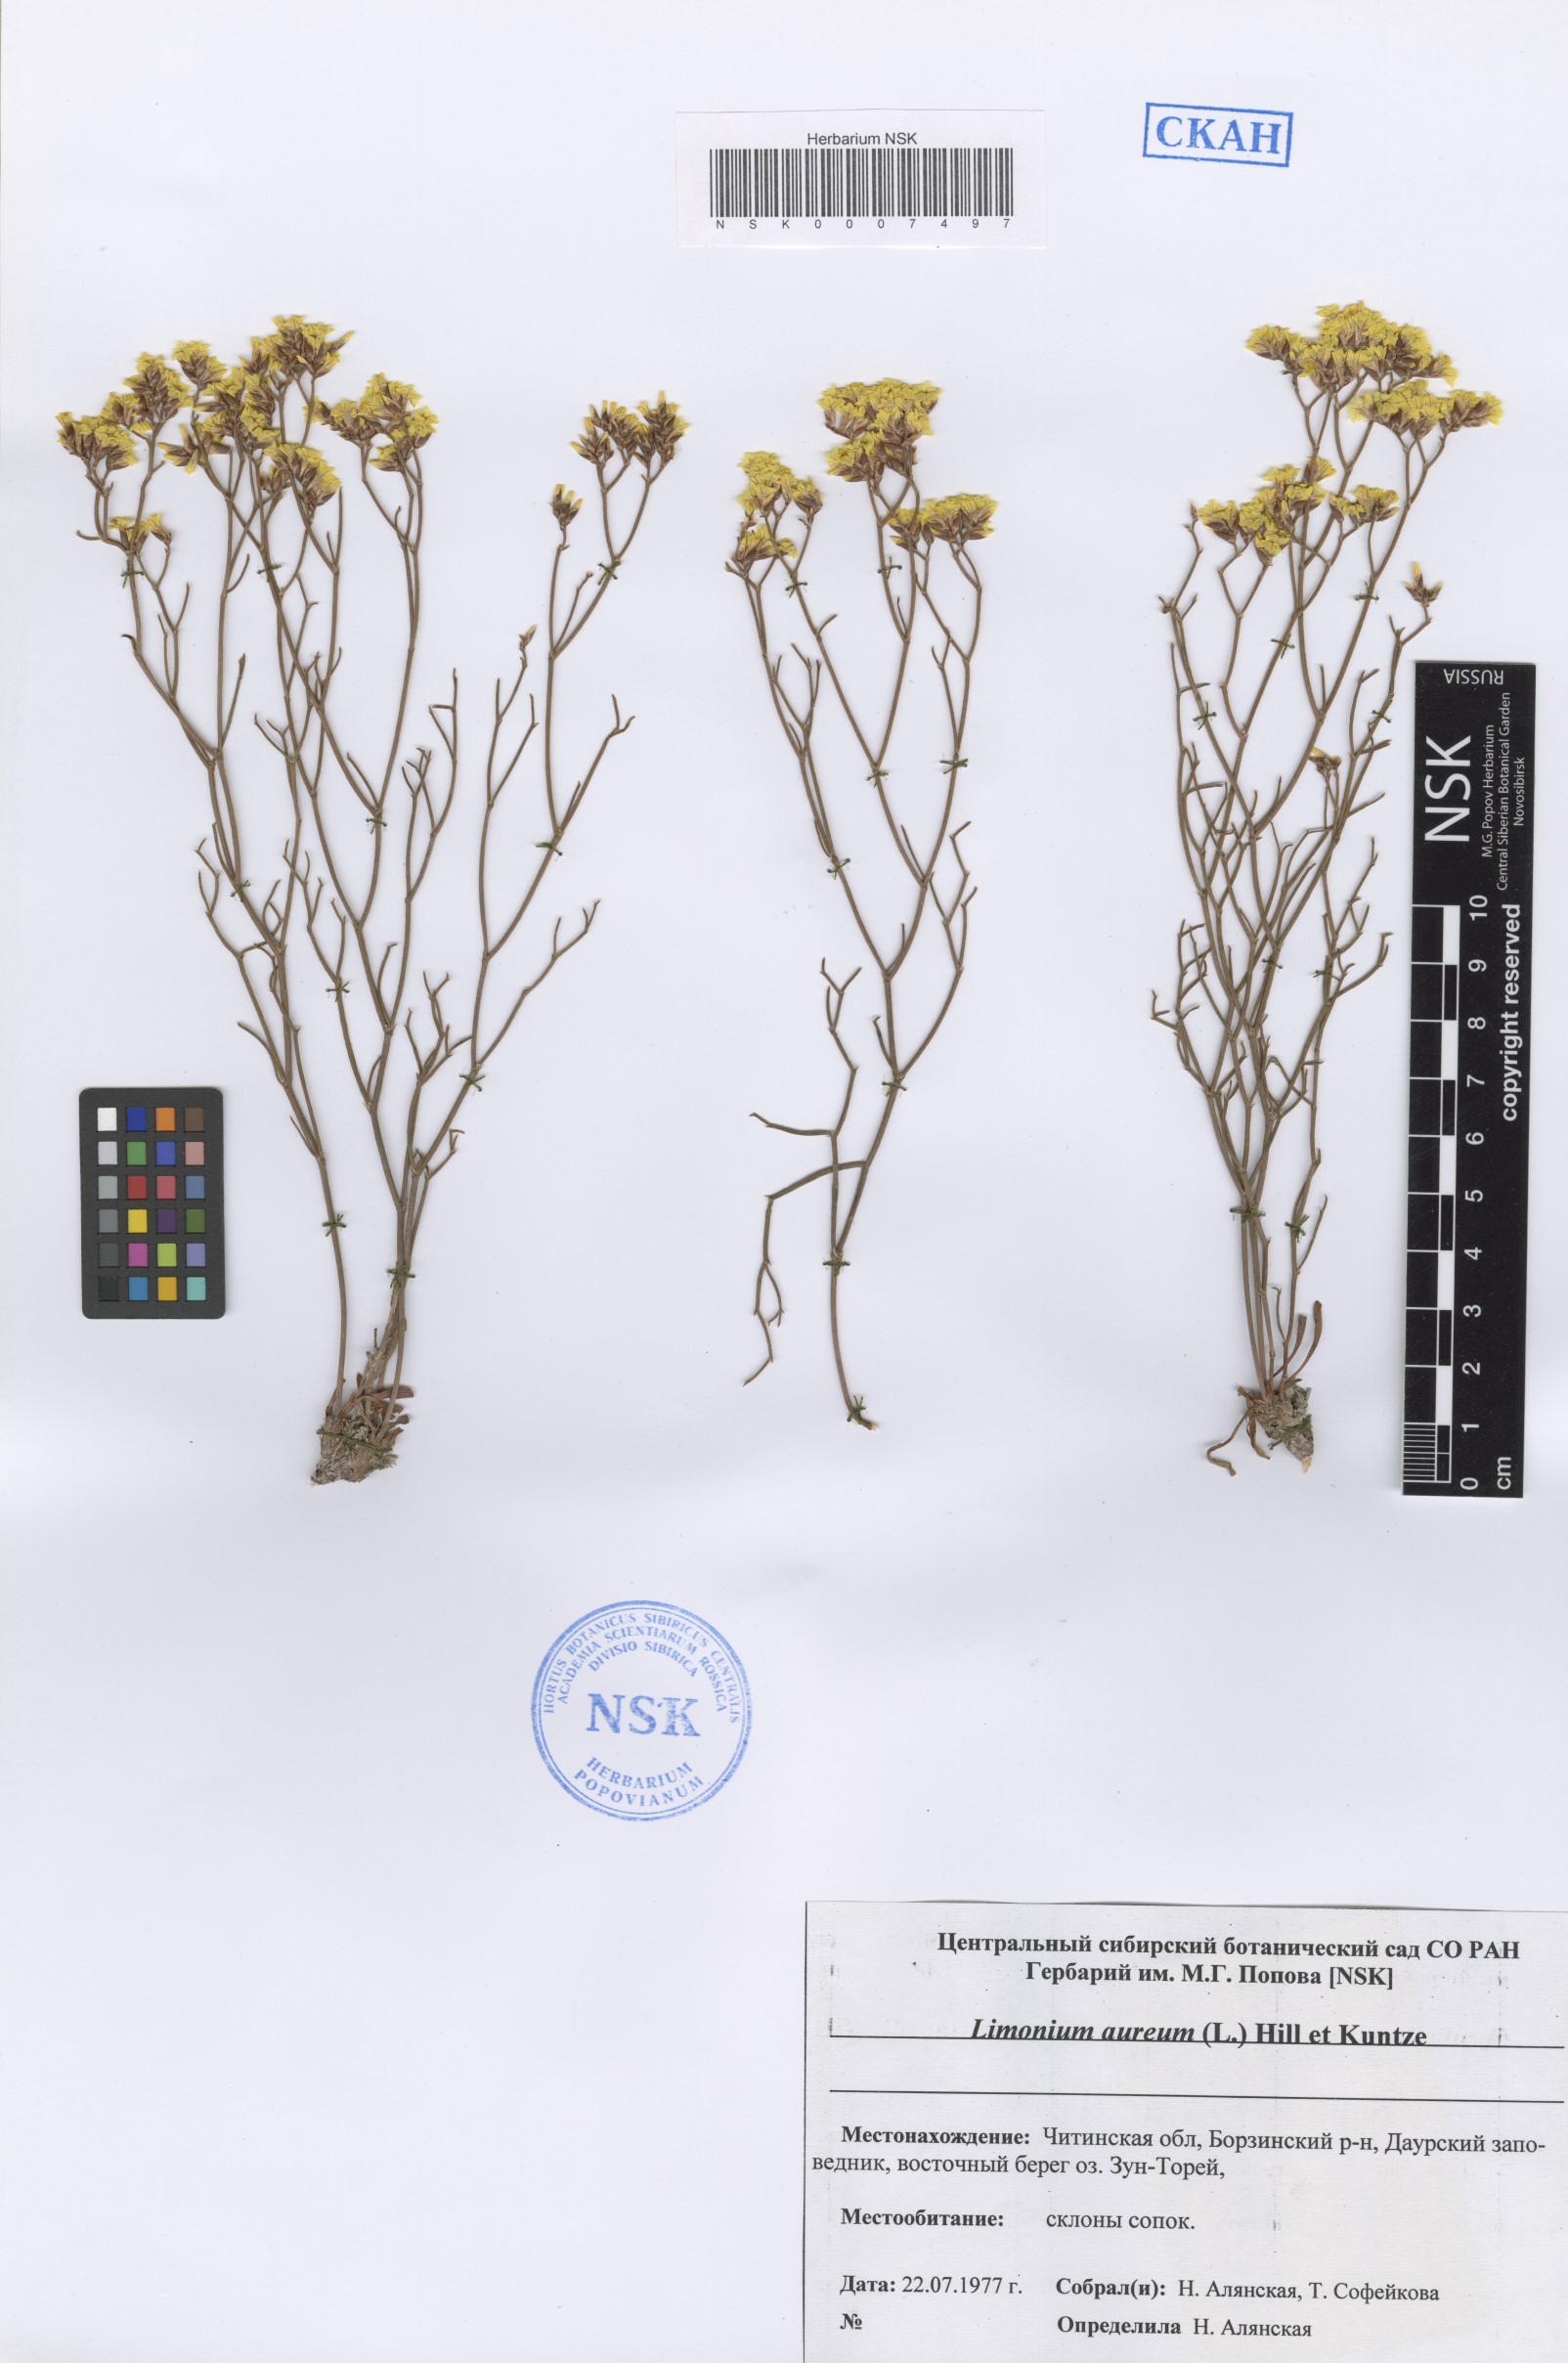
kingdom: Plantae
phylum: Tracheophyta
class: Magnoliopsida
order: Caryophyllales
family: Plumbaginaceae
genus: Limonium
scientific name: Limonium aureum
